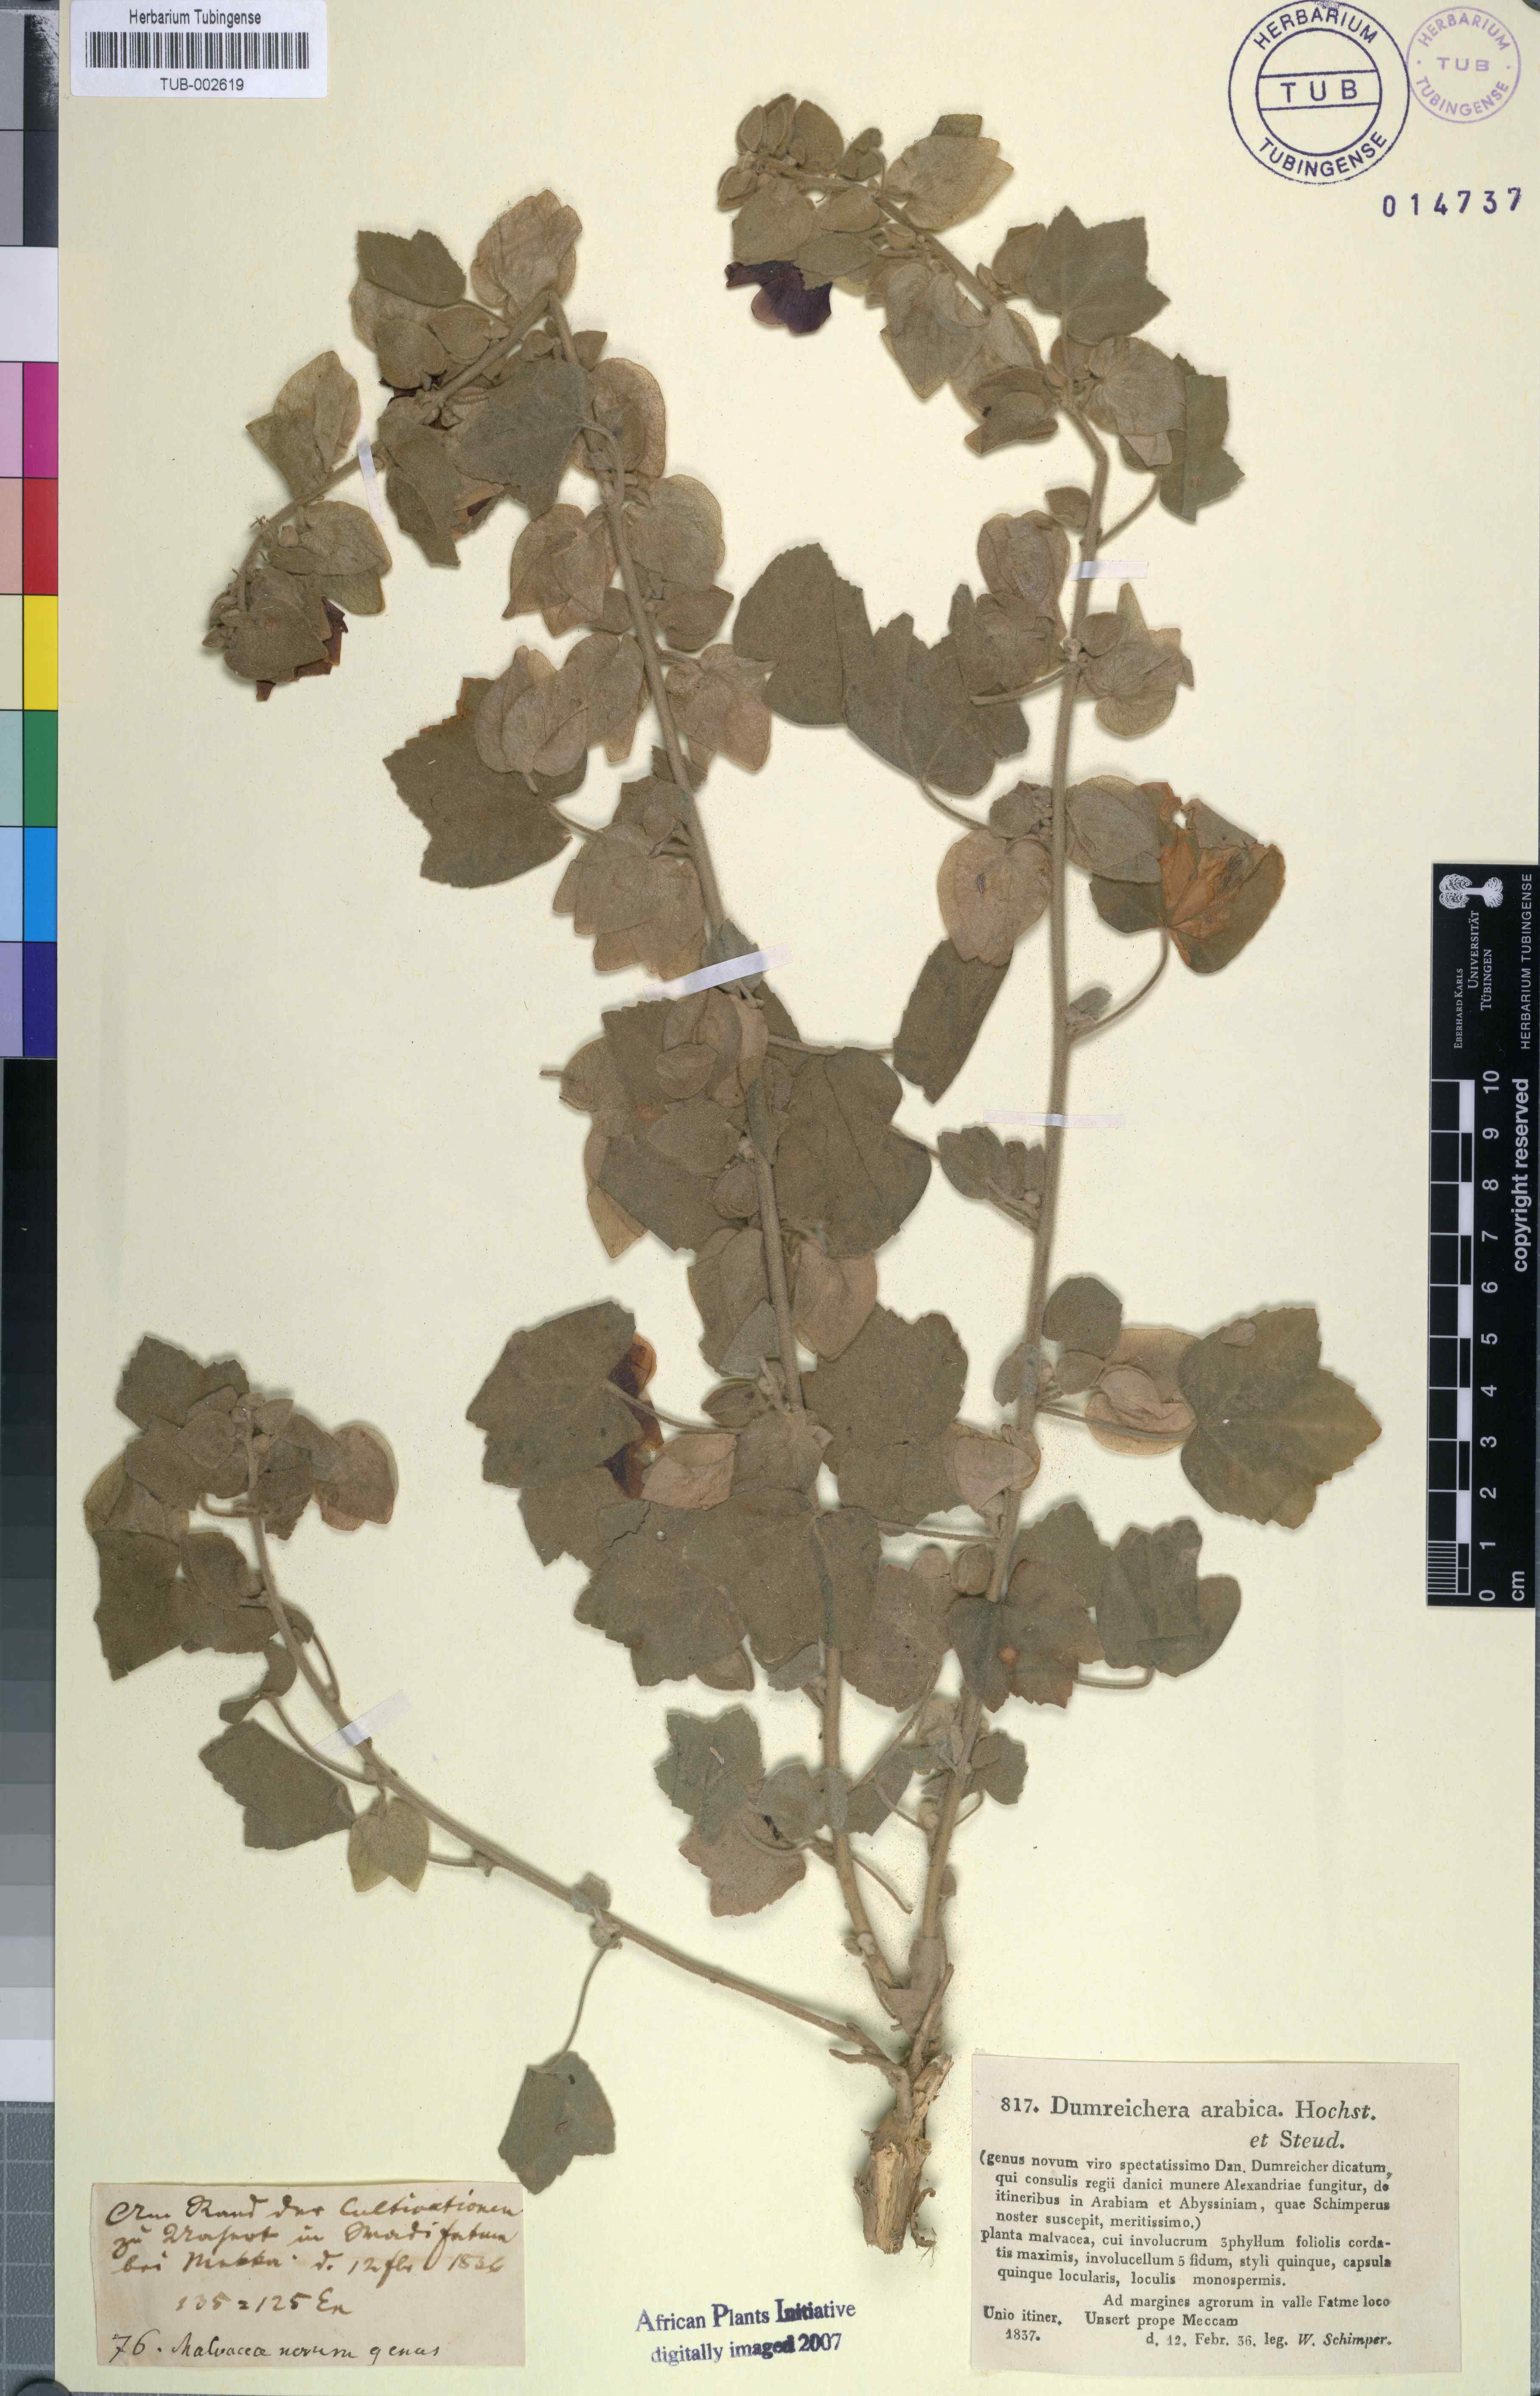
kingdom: Plantae
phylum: Tracheophyta
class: Magnoliopsida
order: Malvales
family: Malvaceae
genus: Senra
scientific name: Senra incana
